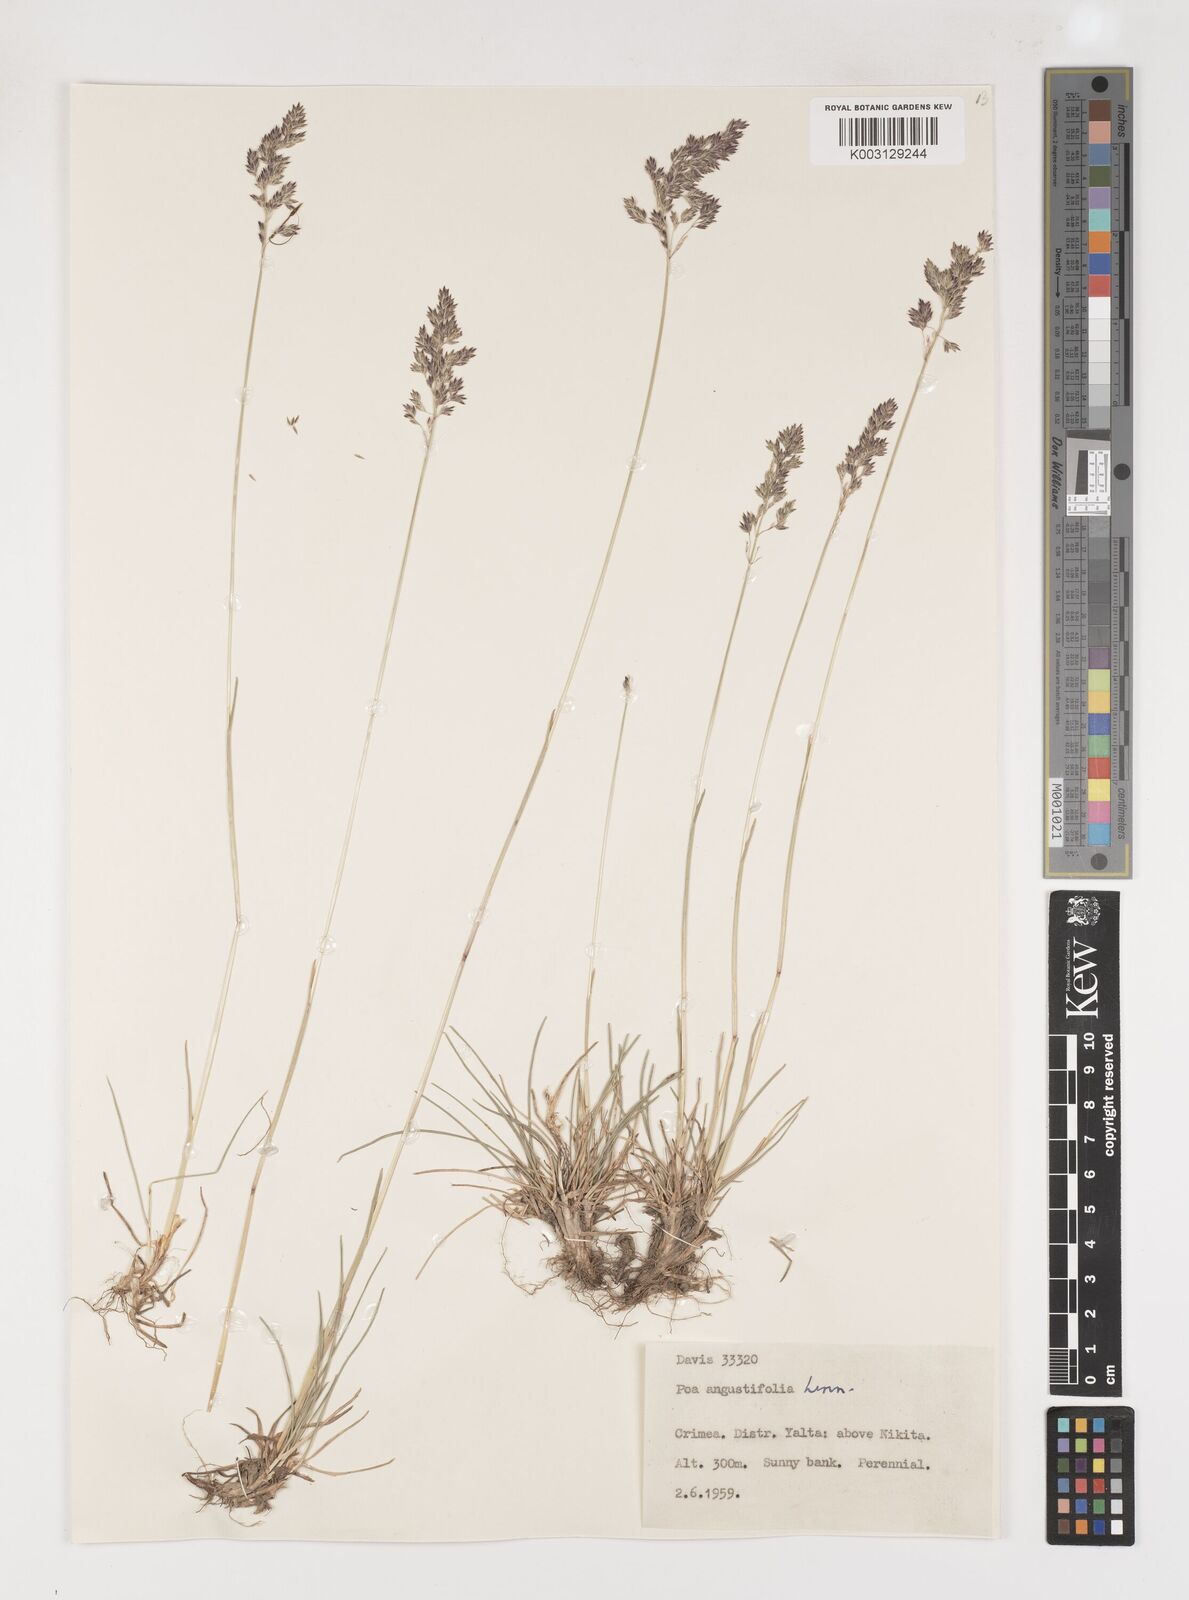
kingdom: Plantae
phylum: Tracheophyta
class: Liliopsida
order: Poales
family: Poaceae
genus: Poa
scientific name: Poa angustifolia
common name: Narrow-leaved meadow-grass
